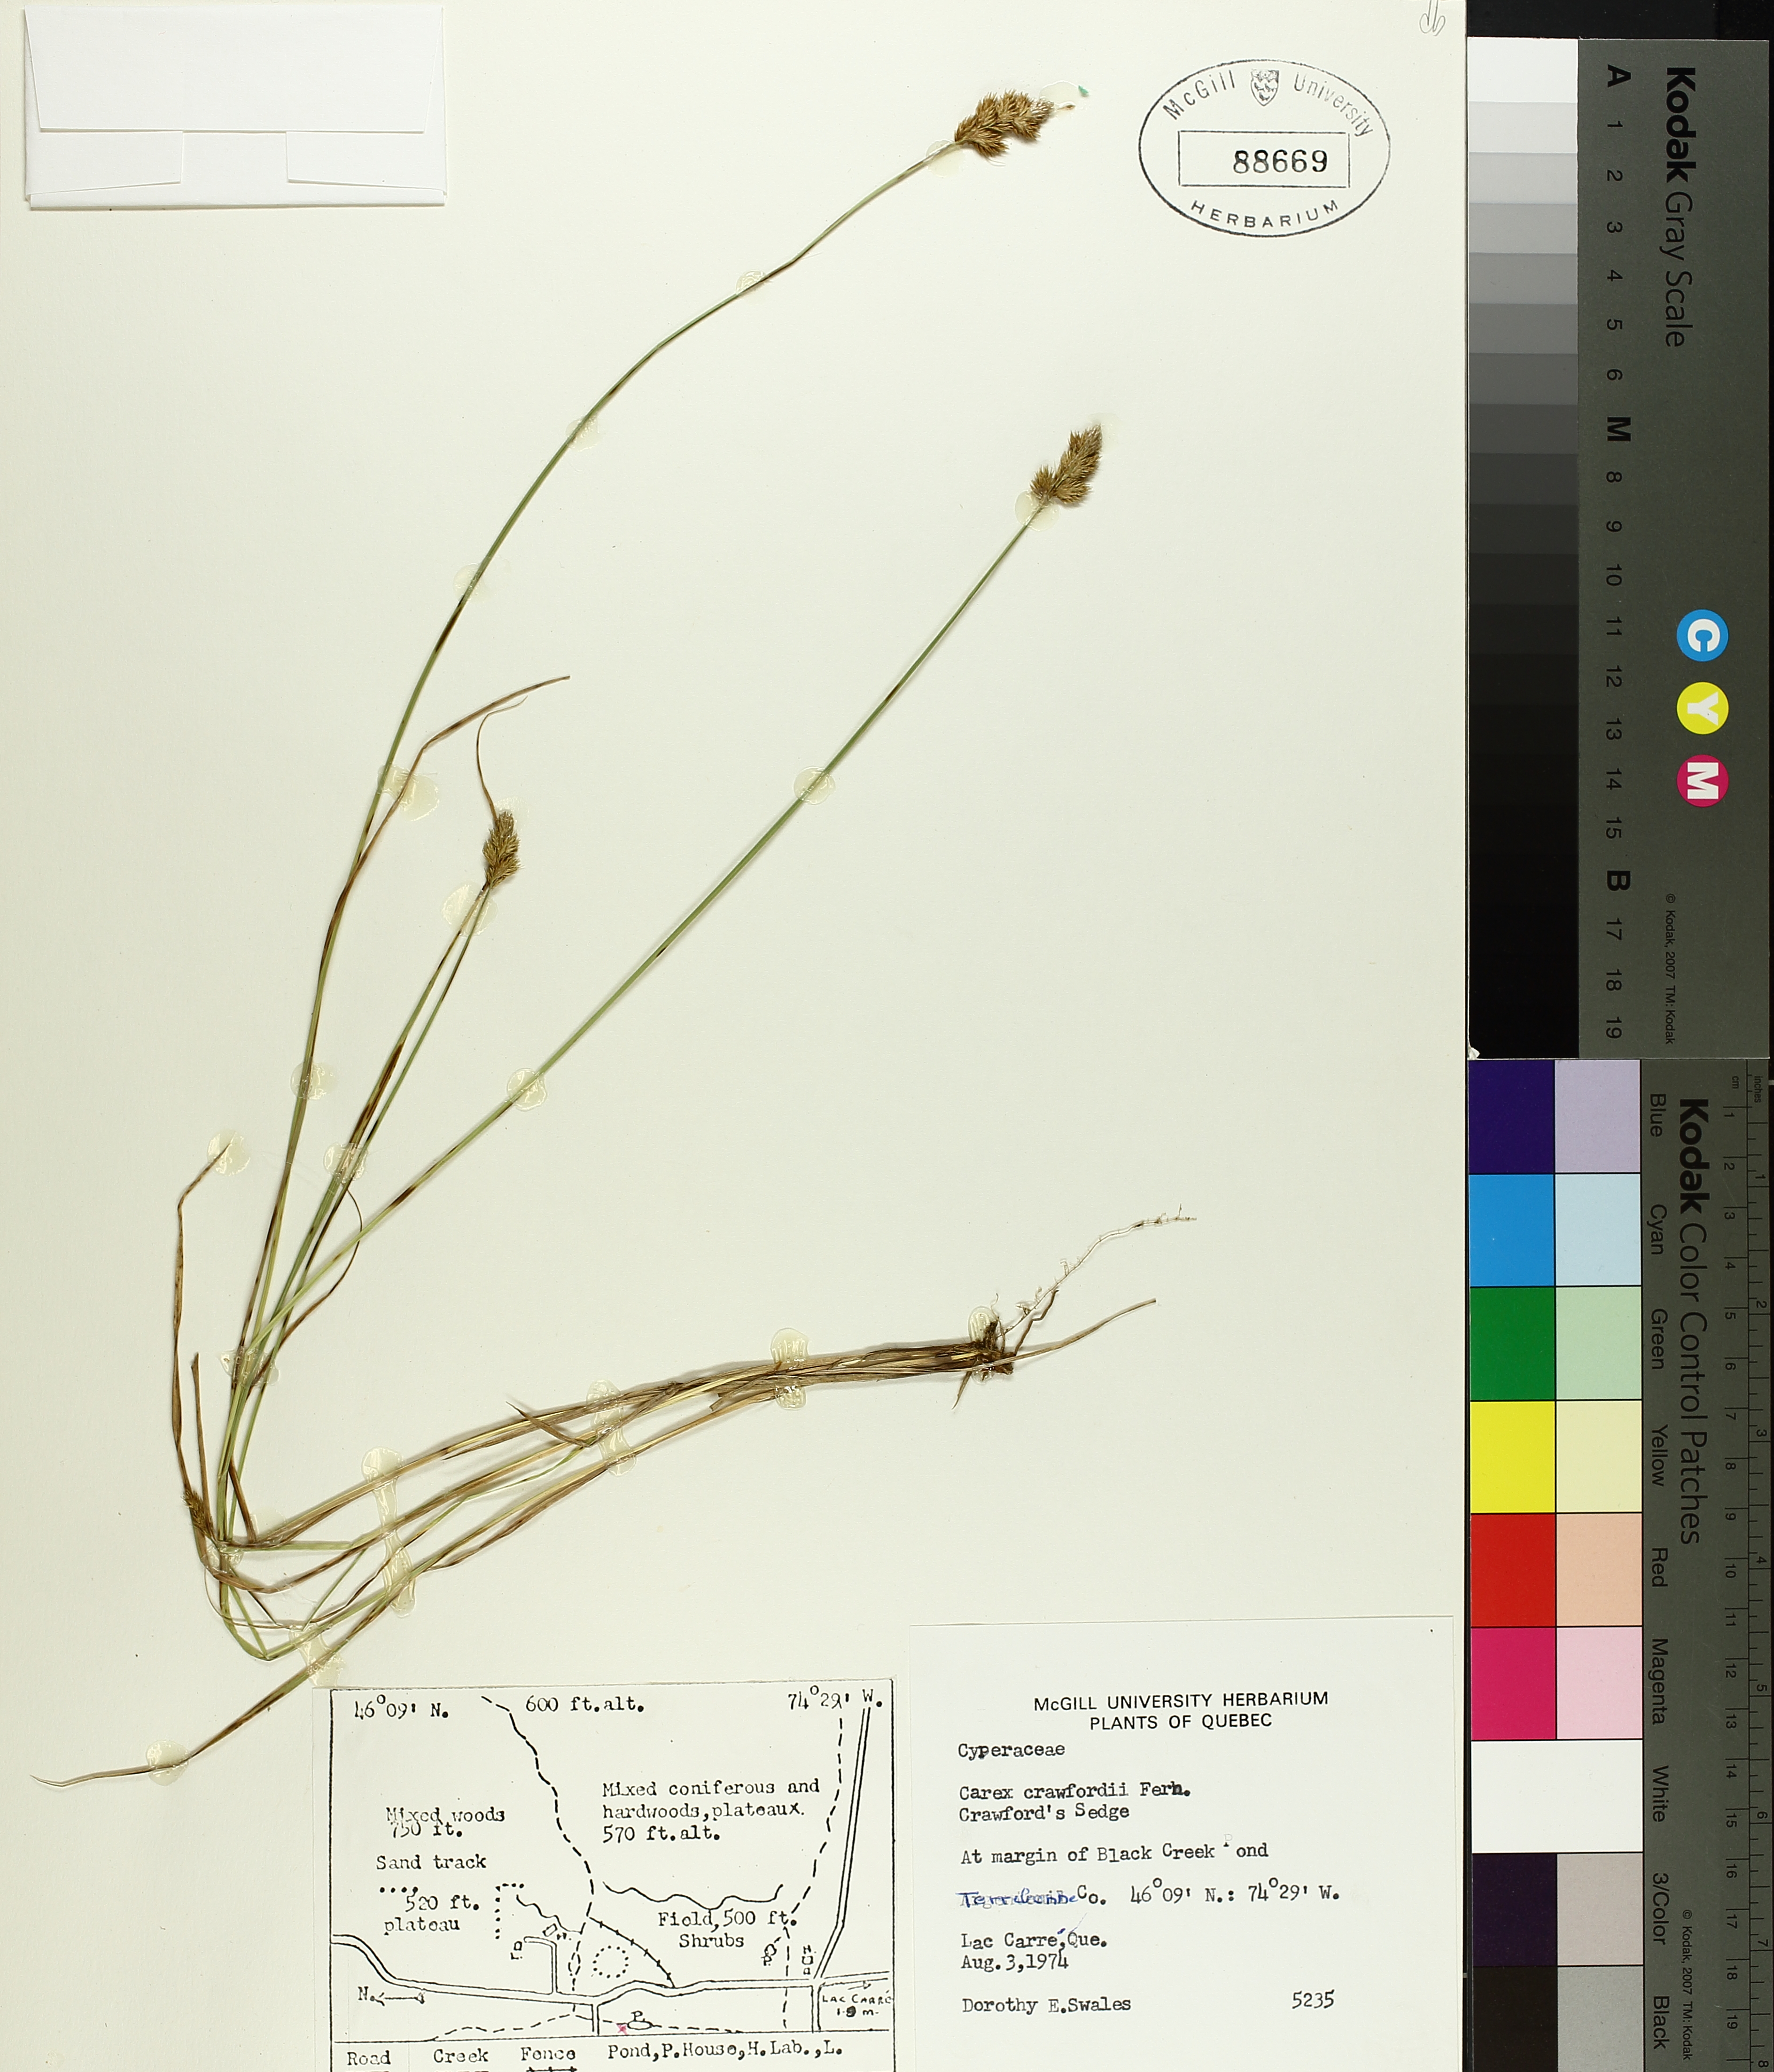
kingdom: Plantae
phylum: Tracheophyta
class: Liliopsida
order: Poales
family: Cyperaceae
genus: Carex
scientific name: Carex crawfordii
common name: Crawford's sedge
